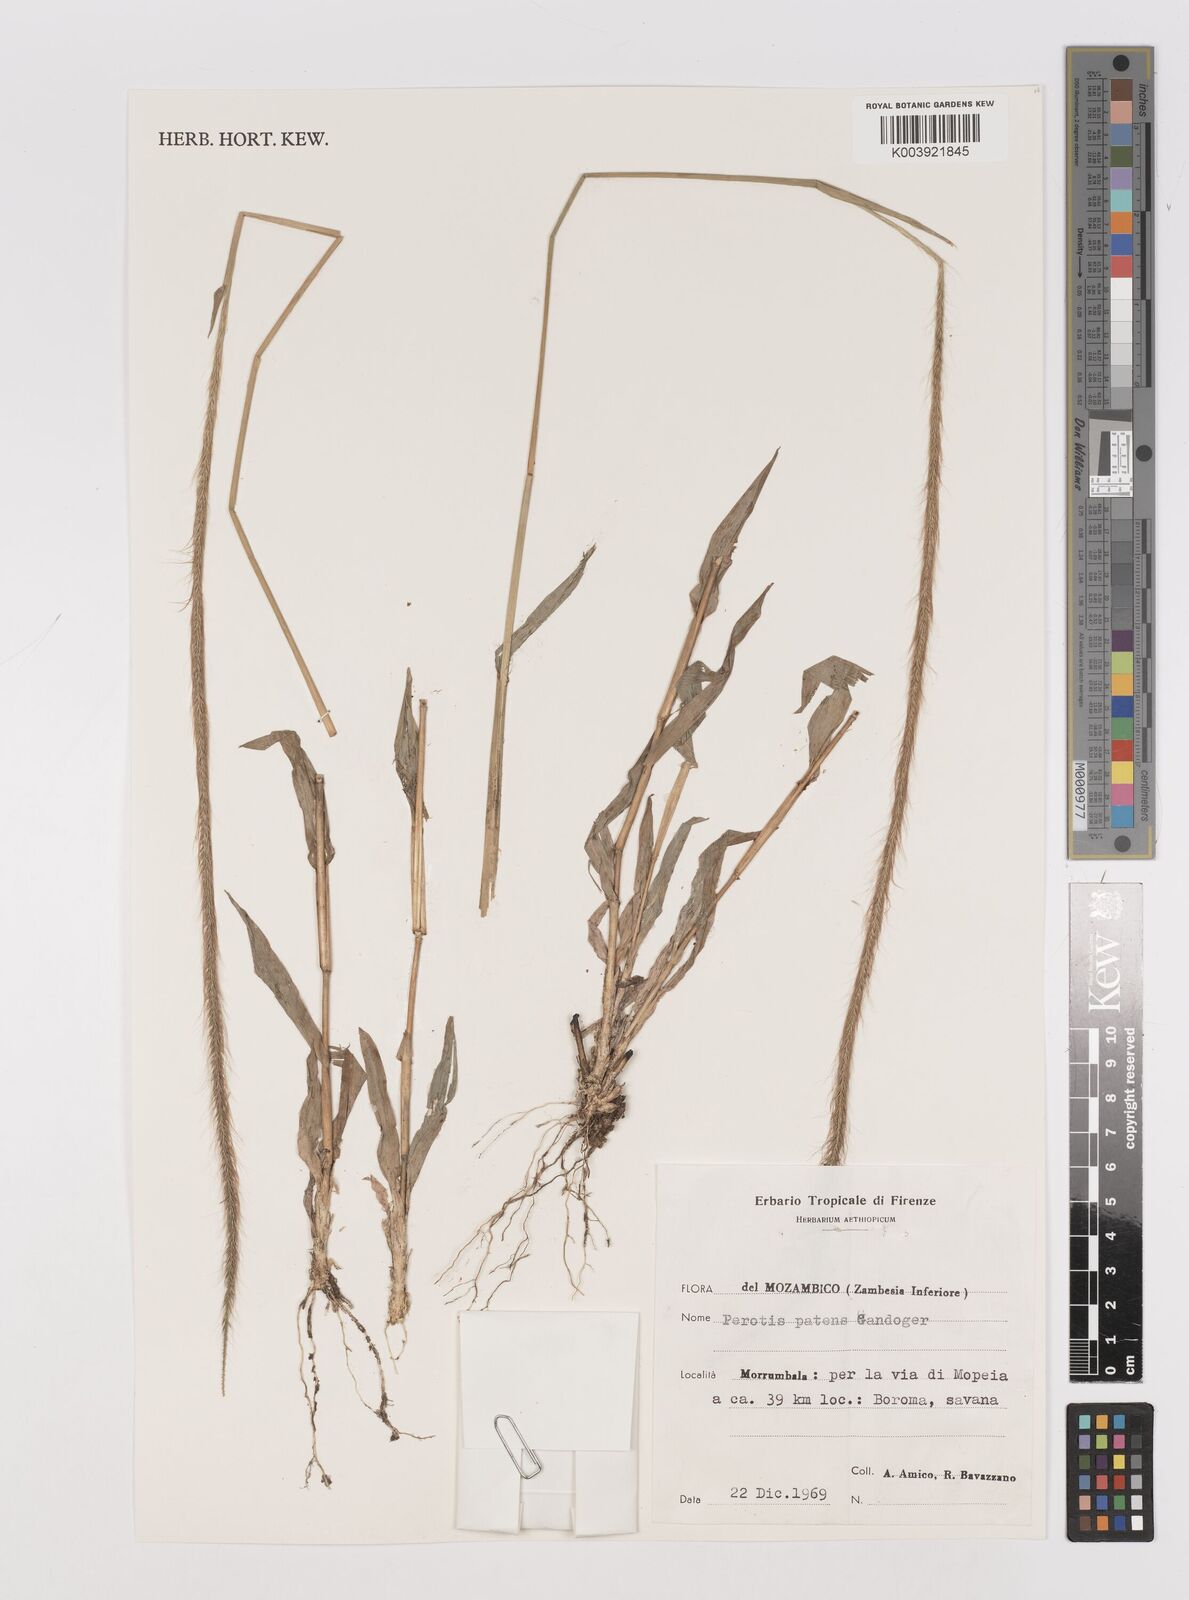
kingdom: Plantae
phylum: Tracheophyta
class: Liliopsida
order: Poales
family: Poaceae
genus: Perotis
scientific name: Perotis patens
